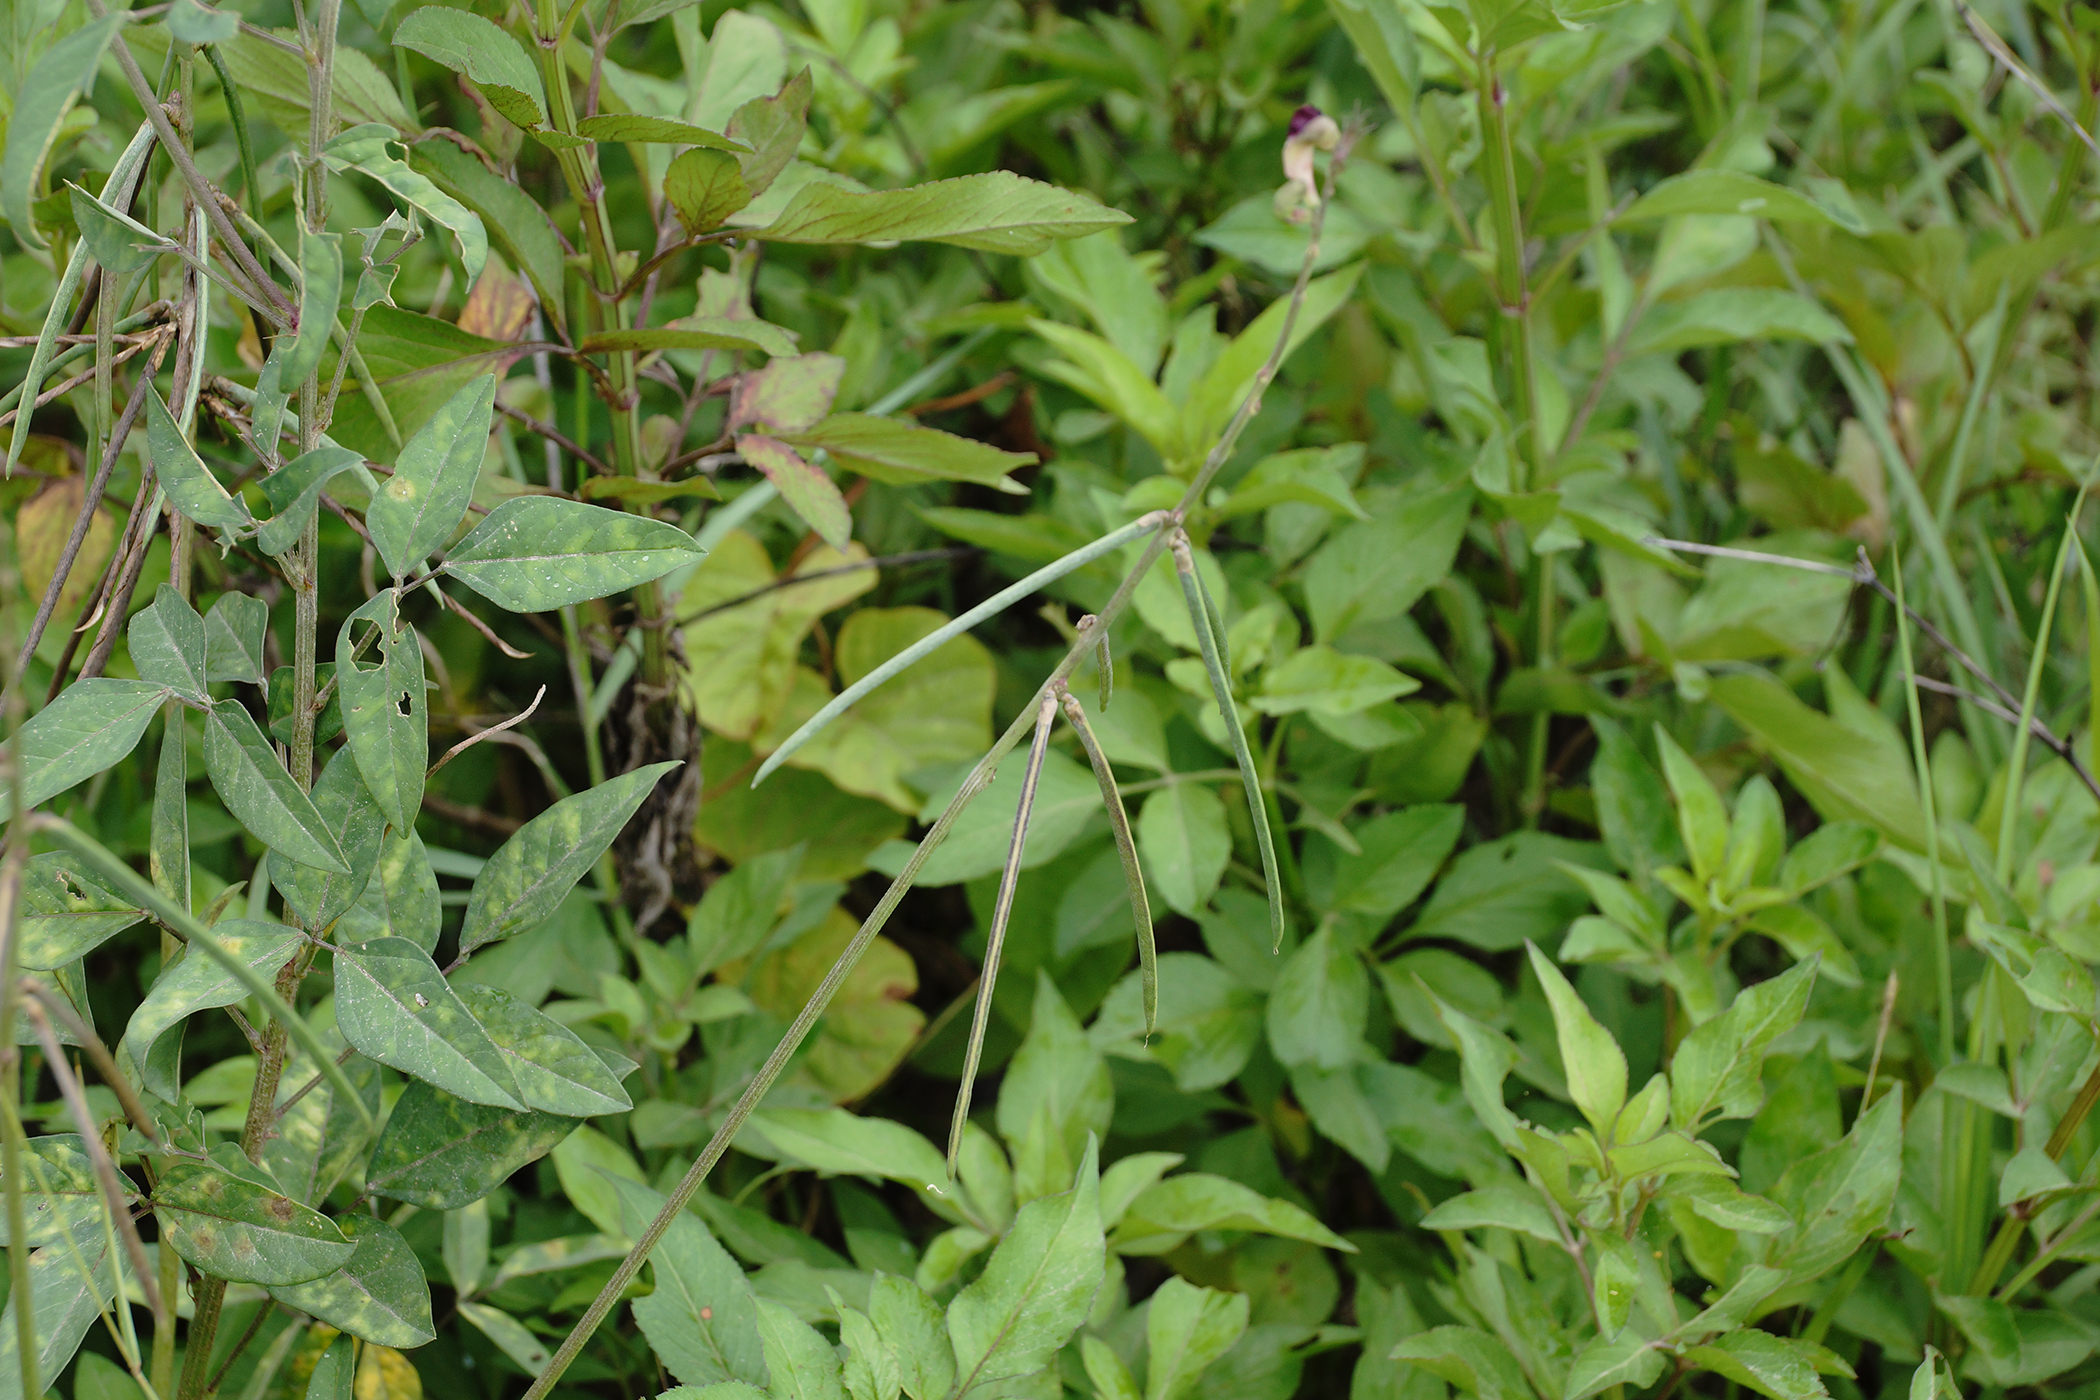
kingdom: Plantae
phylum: Tracheophyta
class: Magnoliopsida
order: Fabales
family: Fabaceae
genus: Macroptilium
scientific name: Macroptilium lathyroides
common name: Wild bushbean
